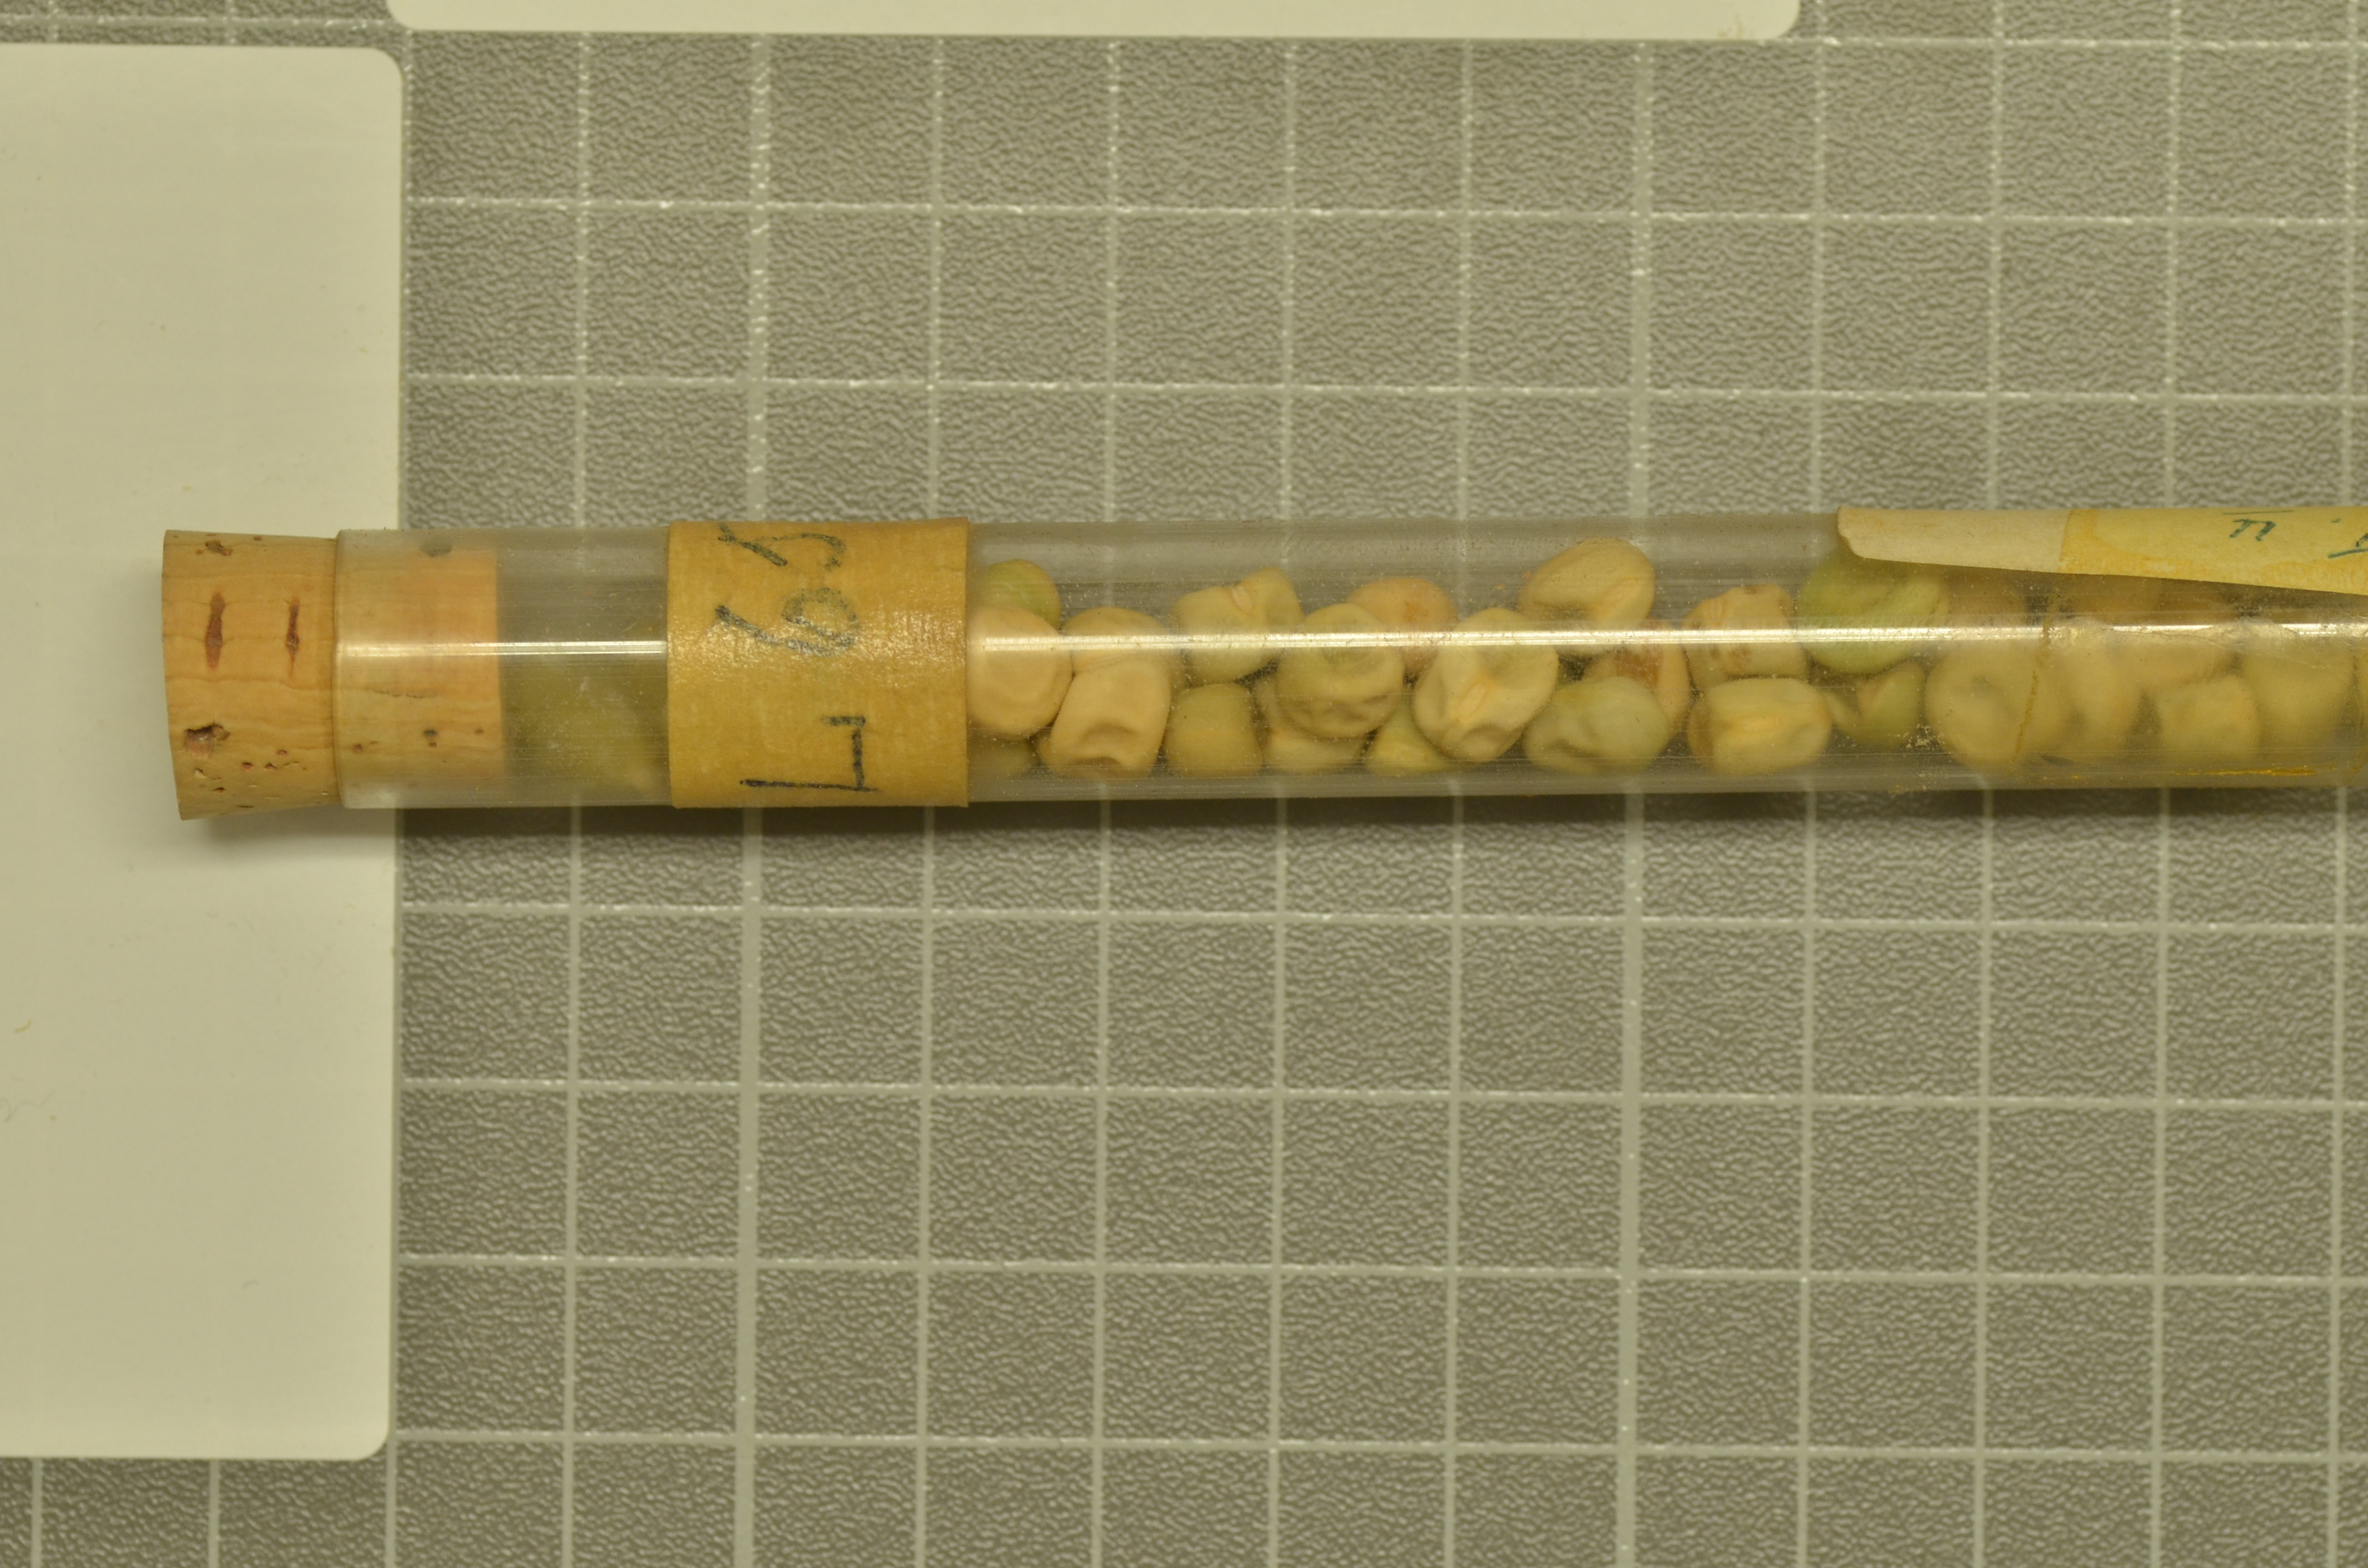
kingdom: Plantae
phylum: Tracheophyta
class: Magnoliopsida
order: Fabales
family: Fabaceae
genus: Lathyrus
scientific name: Lathyrus oleraceus
